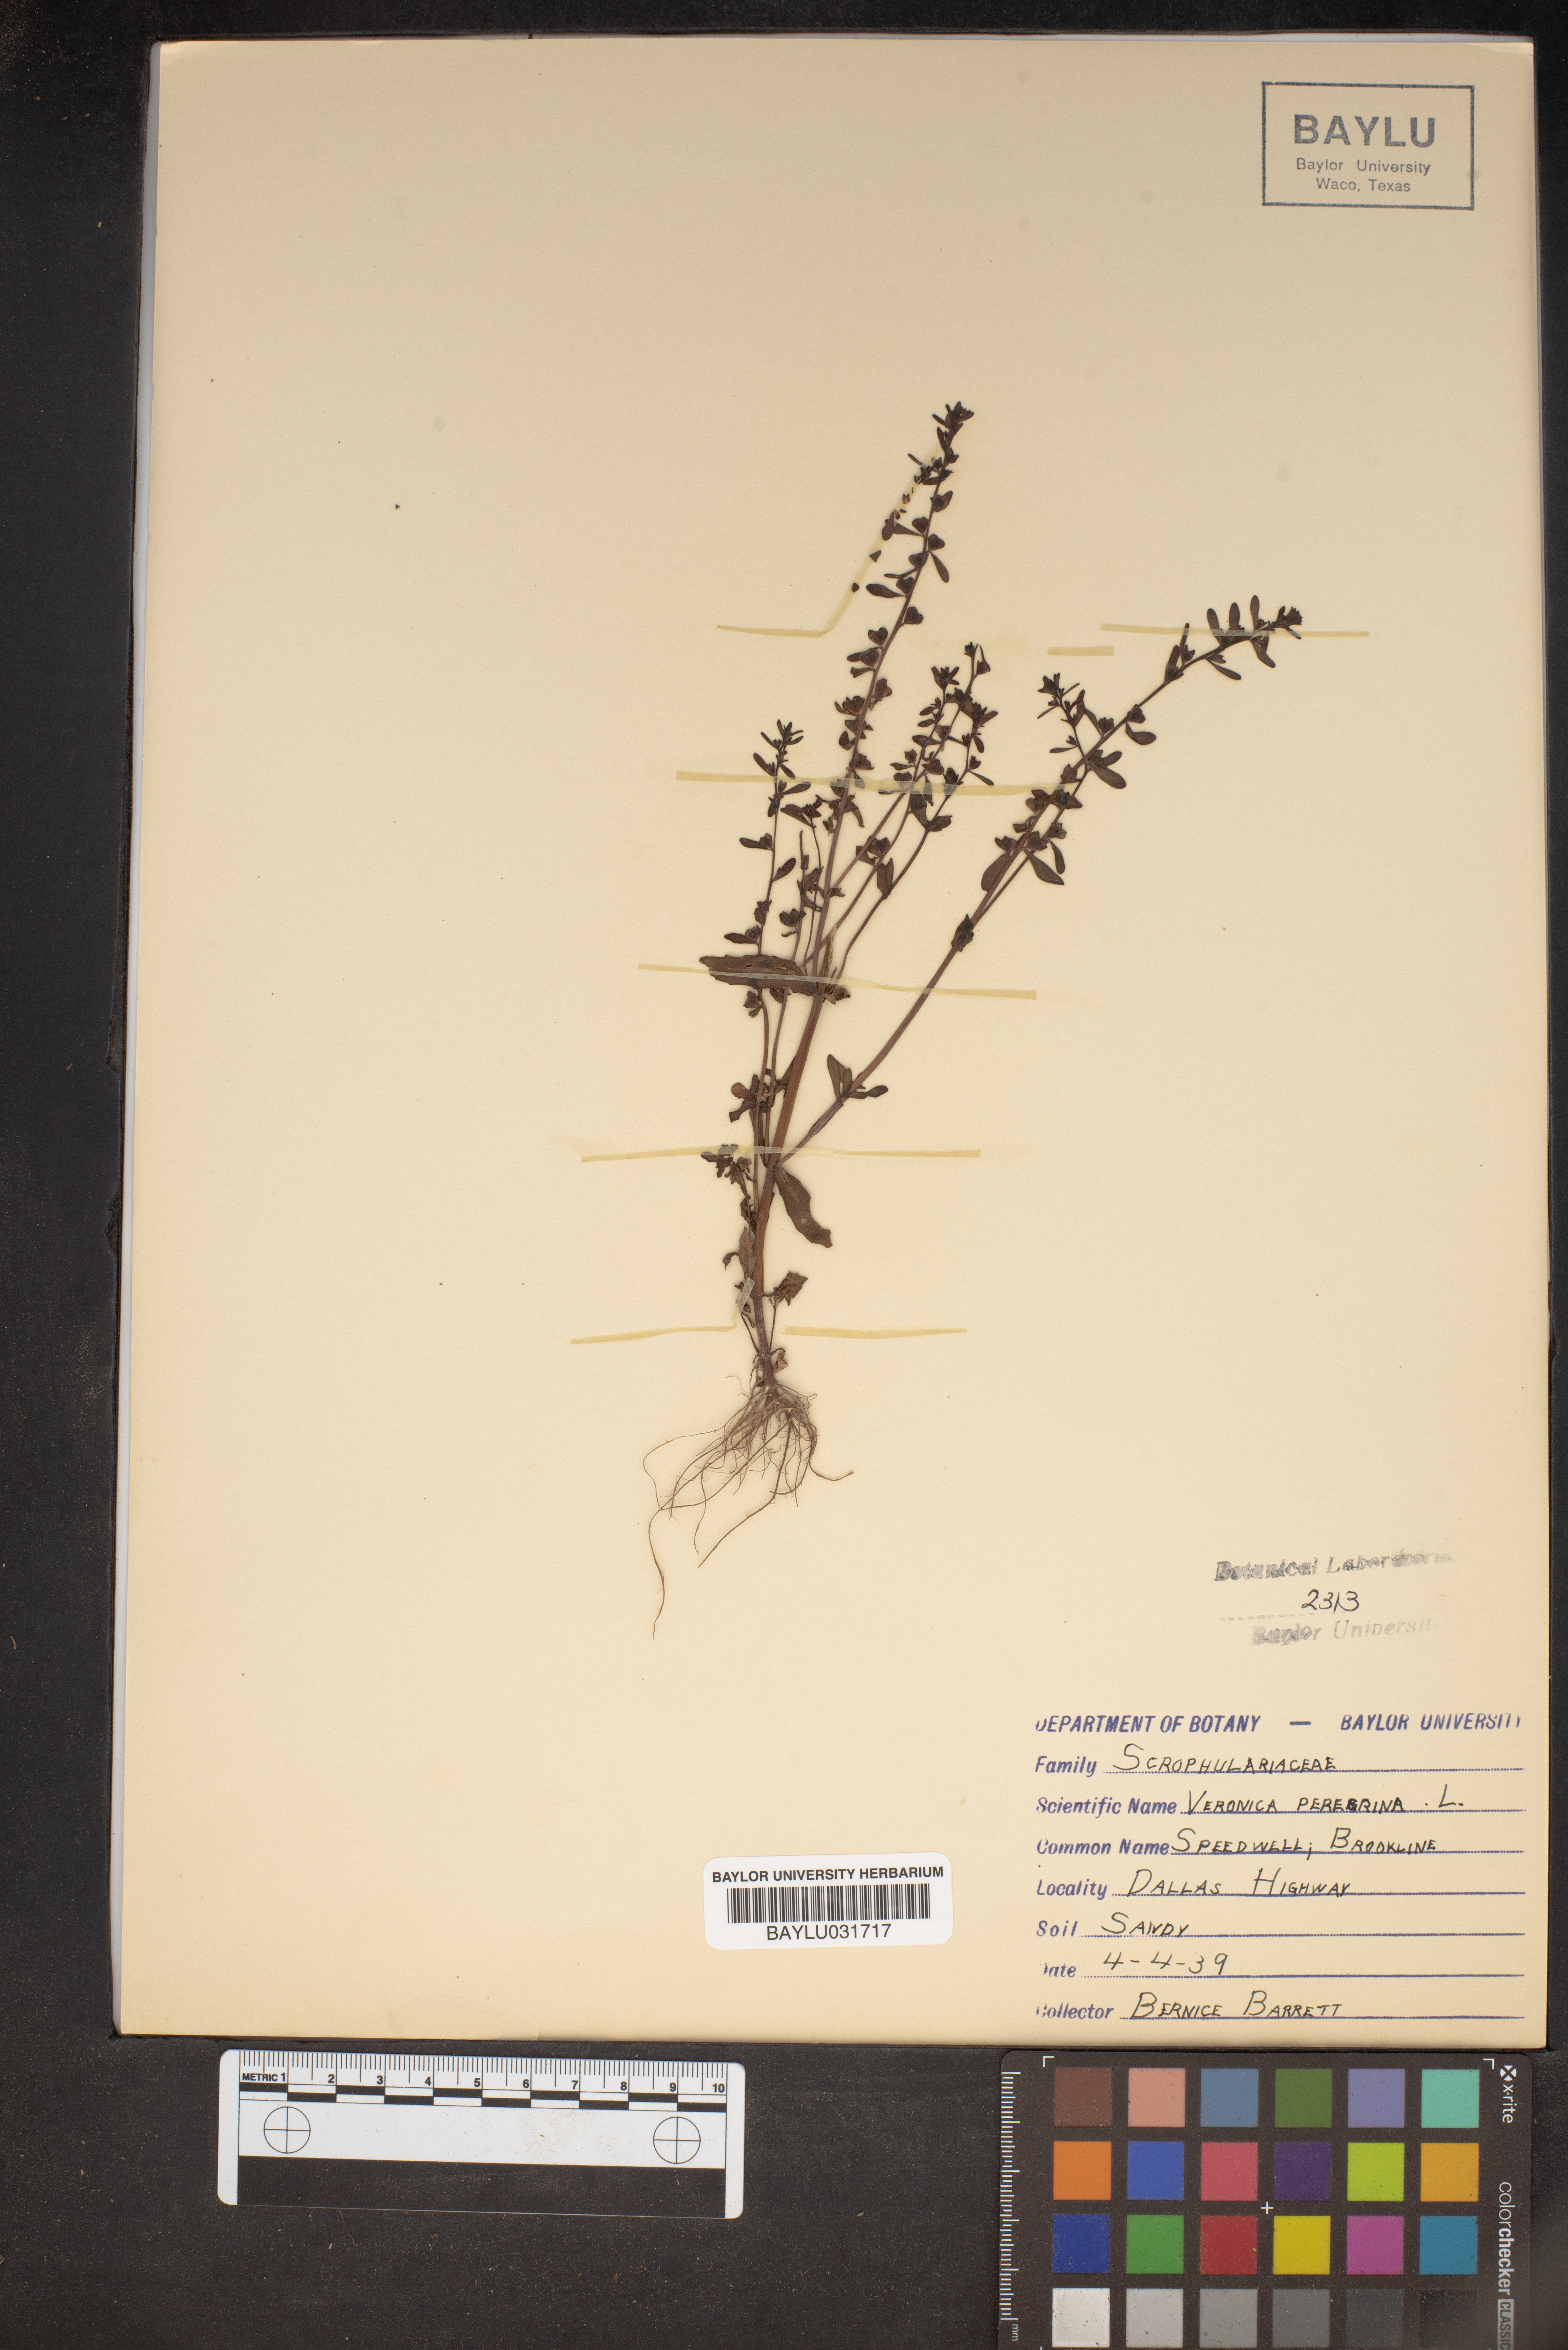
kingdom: Plantae
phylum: Tracheophyta
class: Magnoliopsida
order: Lamiales
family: Plantaginaceae
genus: Veronica
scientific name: Veronica peregrina
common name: Neckweed
